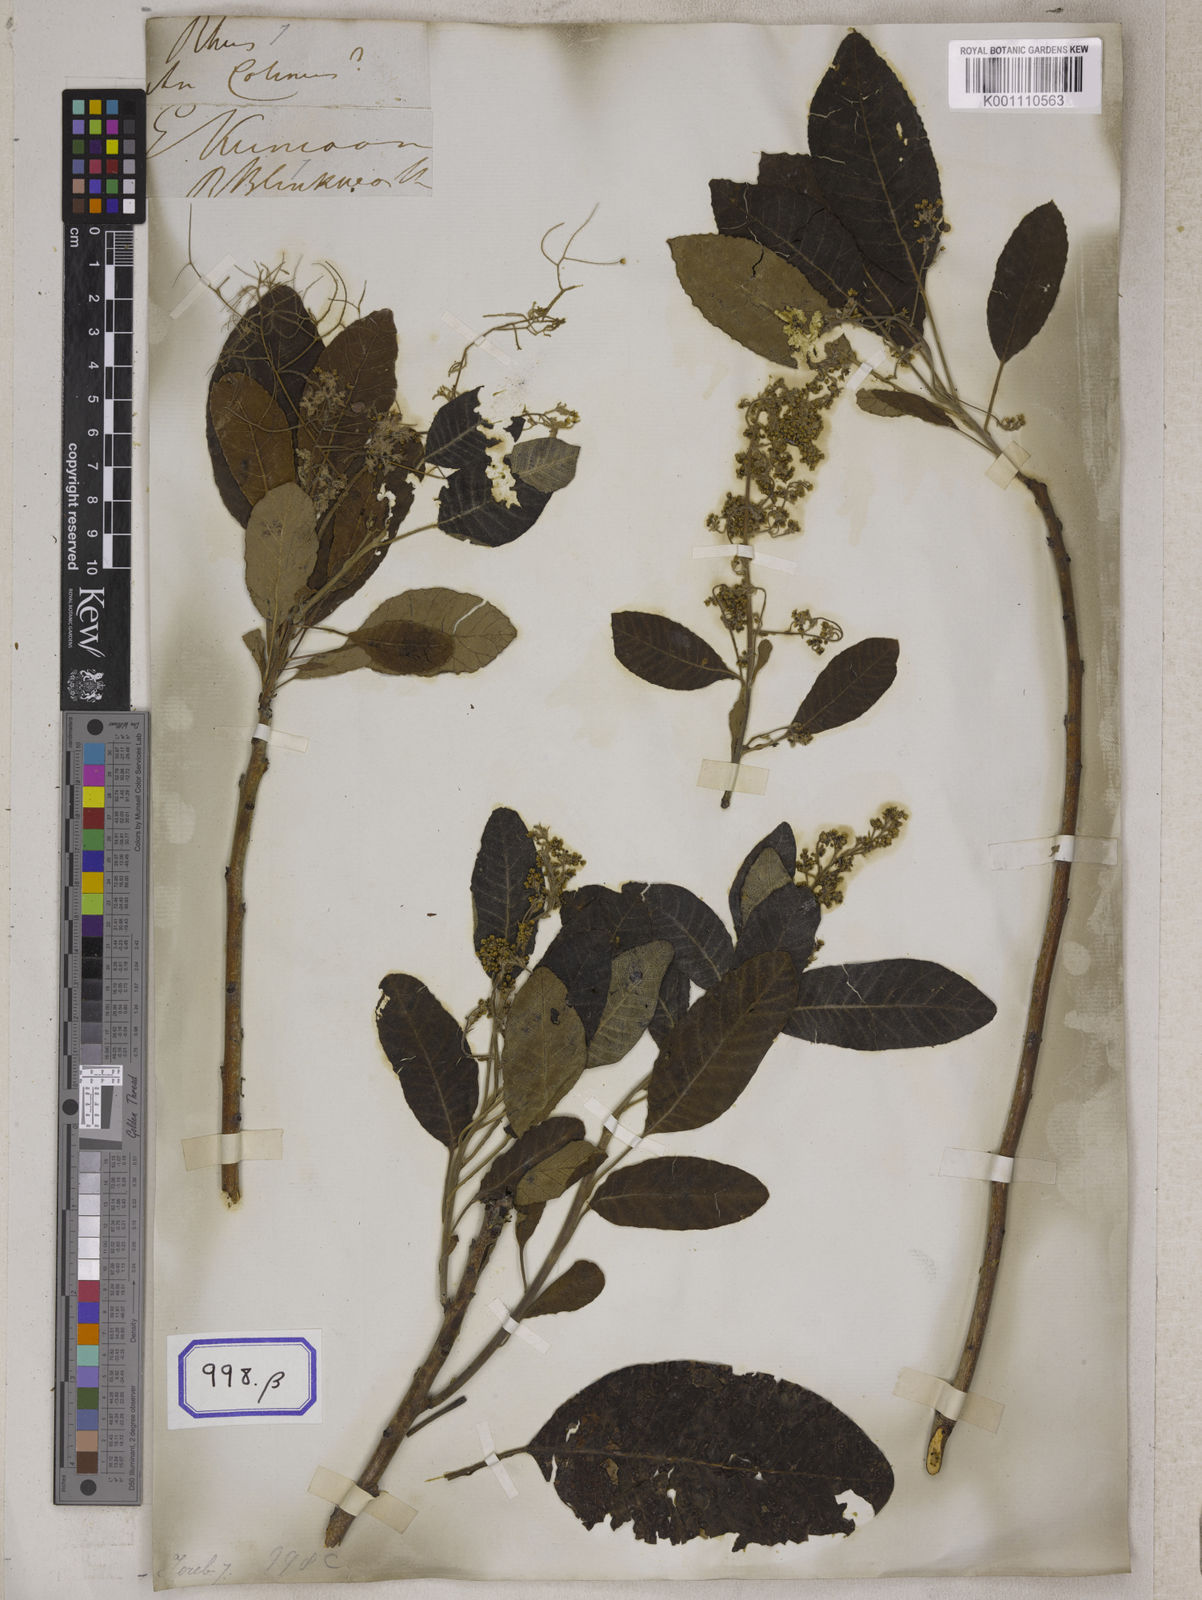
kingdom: Plantae
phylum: Tracheophyta
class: Magnoliopsida
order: Sapindales
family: Anacardiaceae
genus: Rhus
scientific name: Rhus
